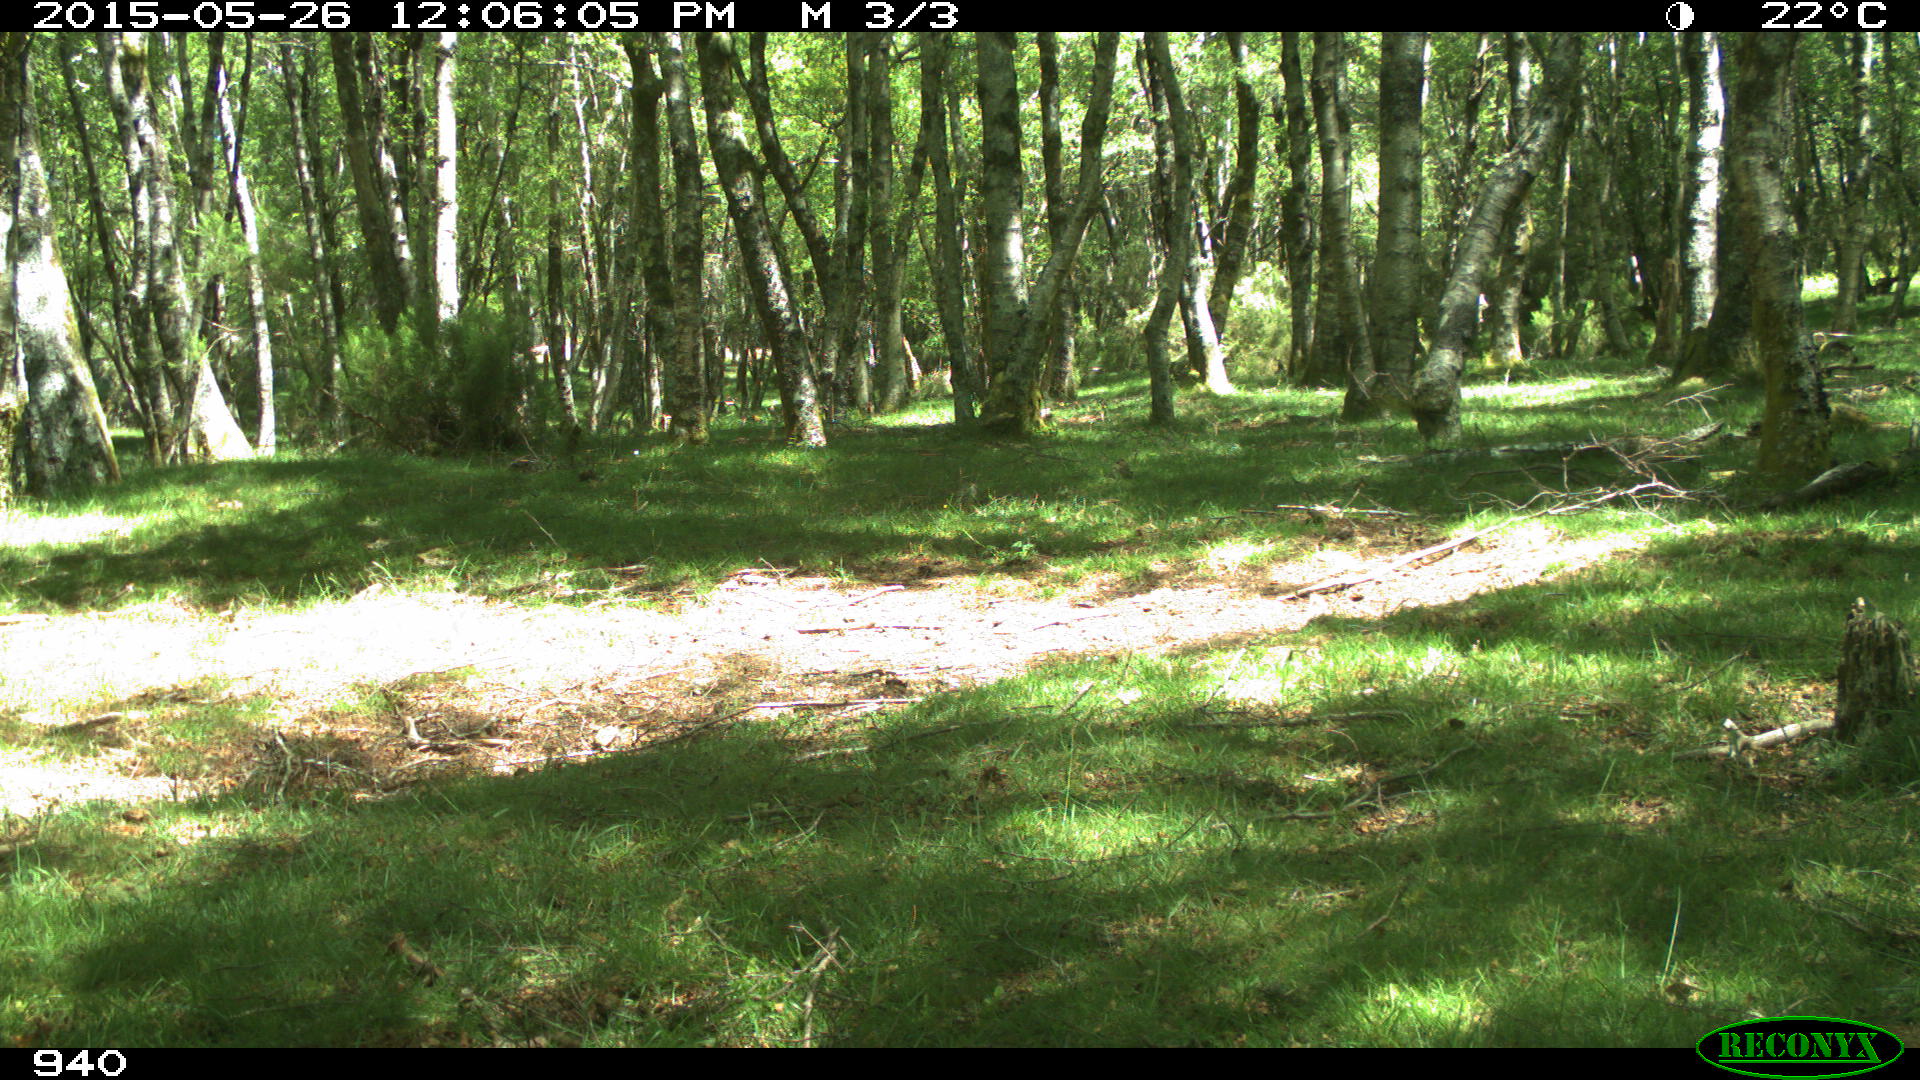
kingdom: Animalia
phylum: Chordata
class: Mammalia
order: Perissodactyla
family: Equidae
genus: Equus
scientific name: Equus caballus
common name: Horse
